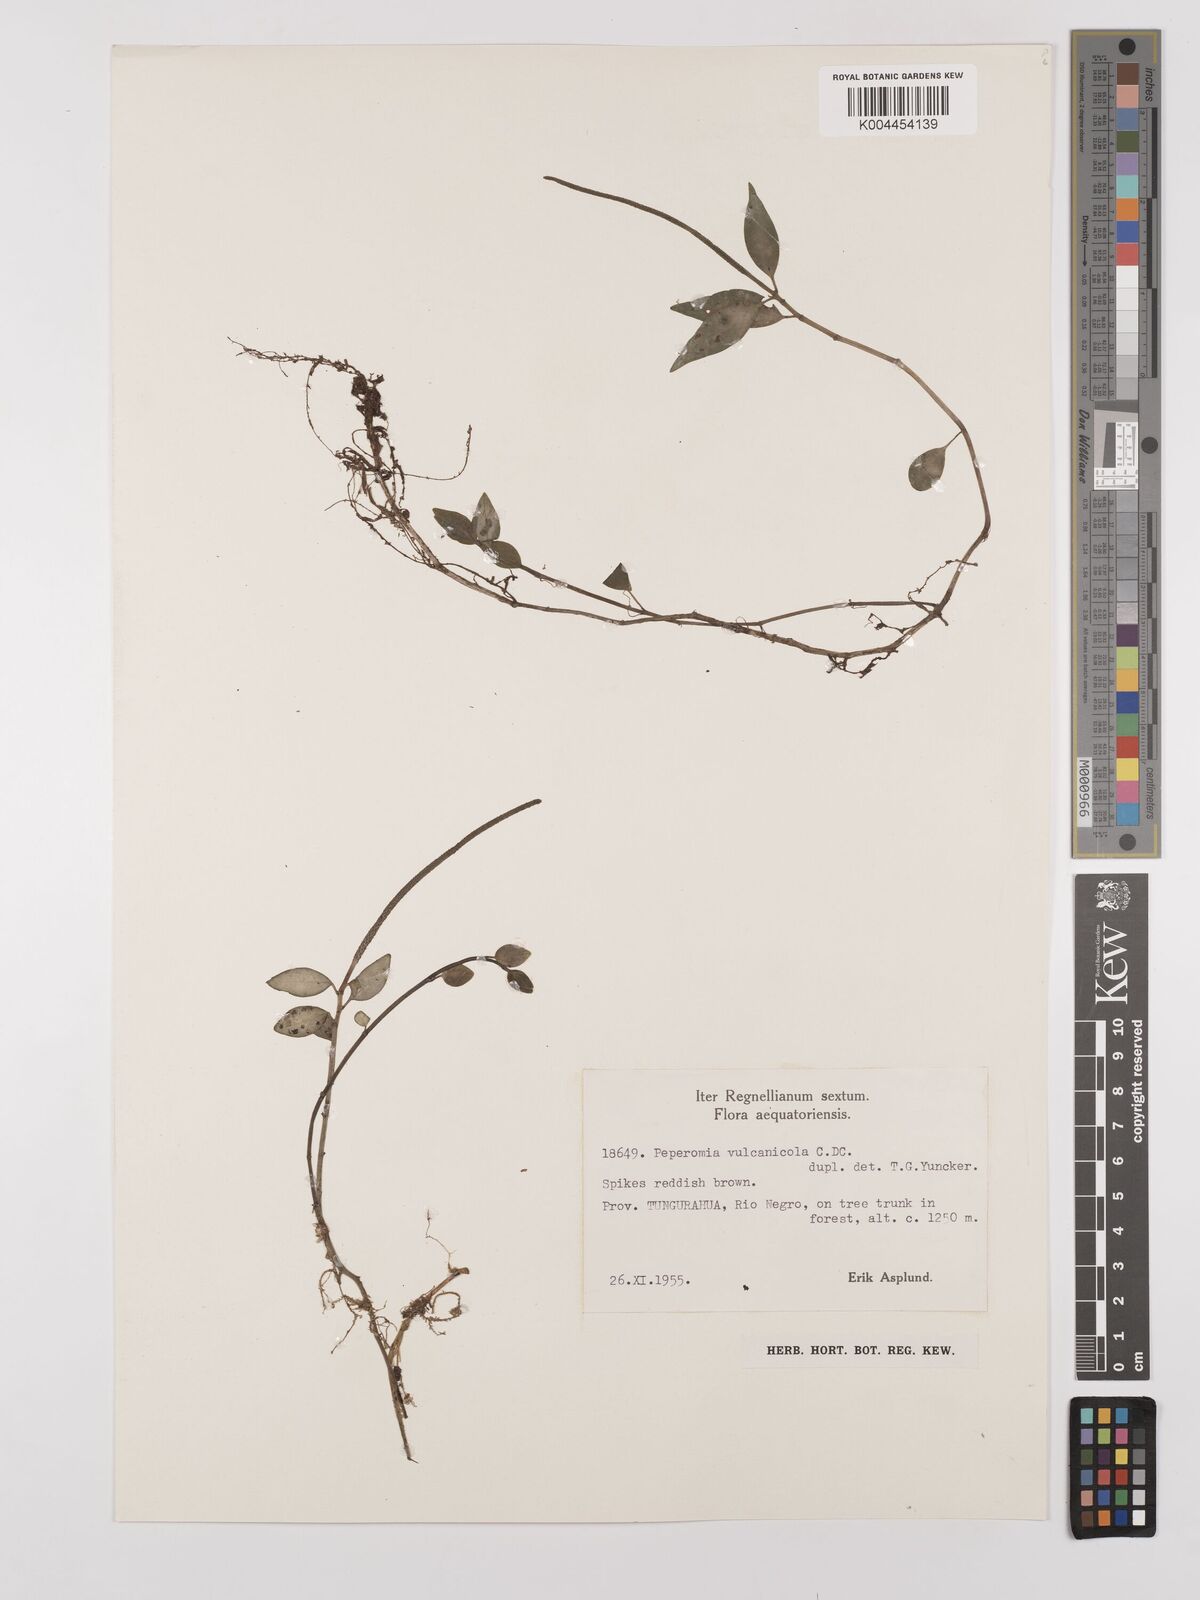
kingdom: Plantae
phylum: Tracheophyta
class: Magnoliopsida
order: Piperales
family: Piperaceae
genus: Peperomia
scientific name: Peperomia heterophylla
